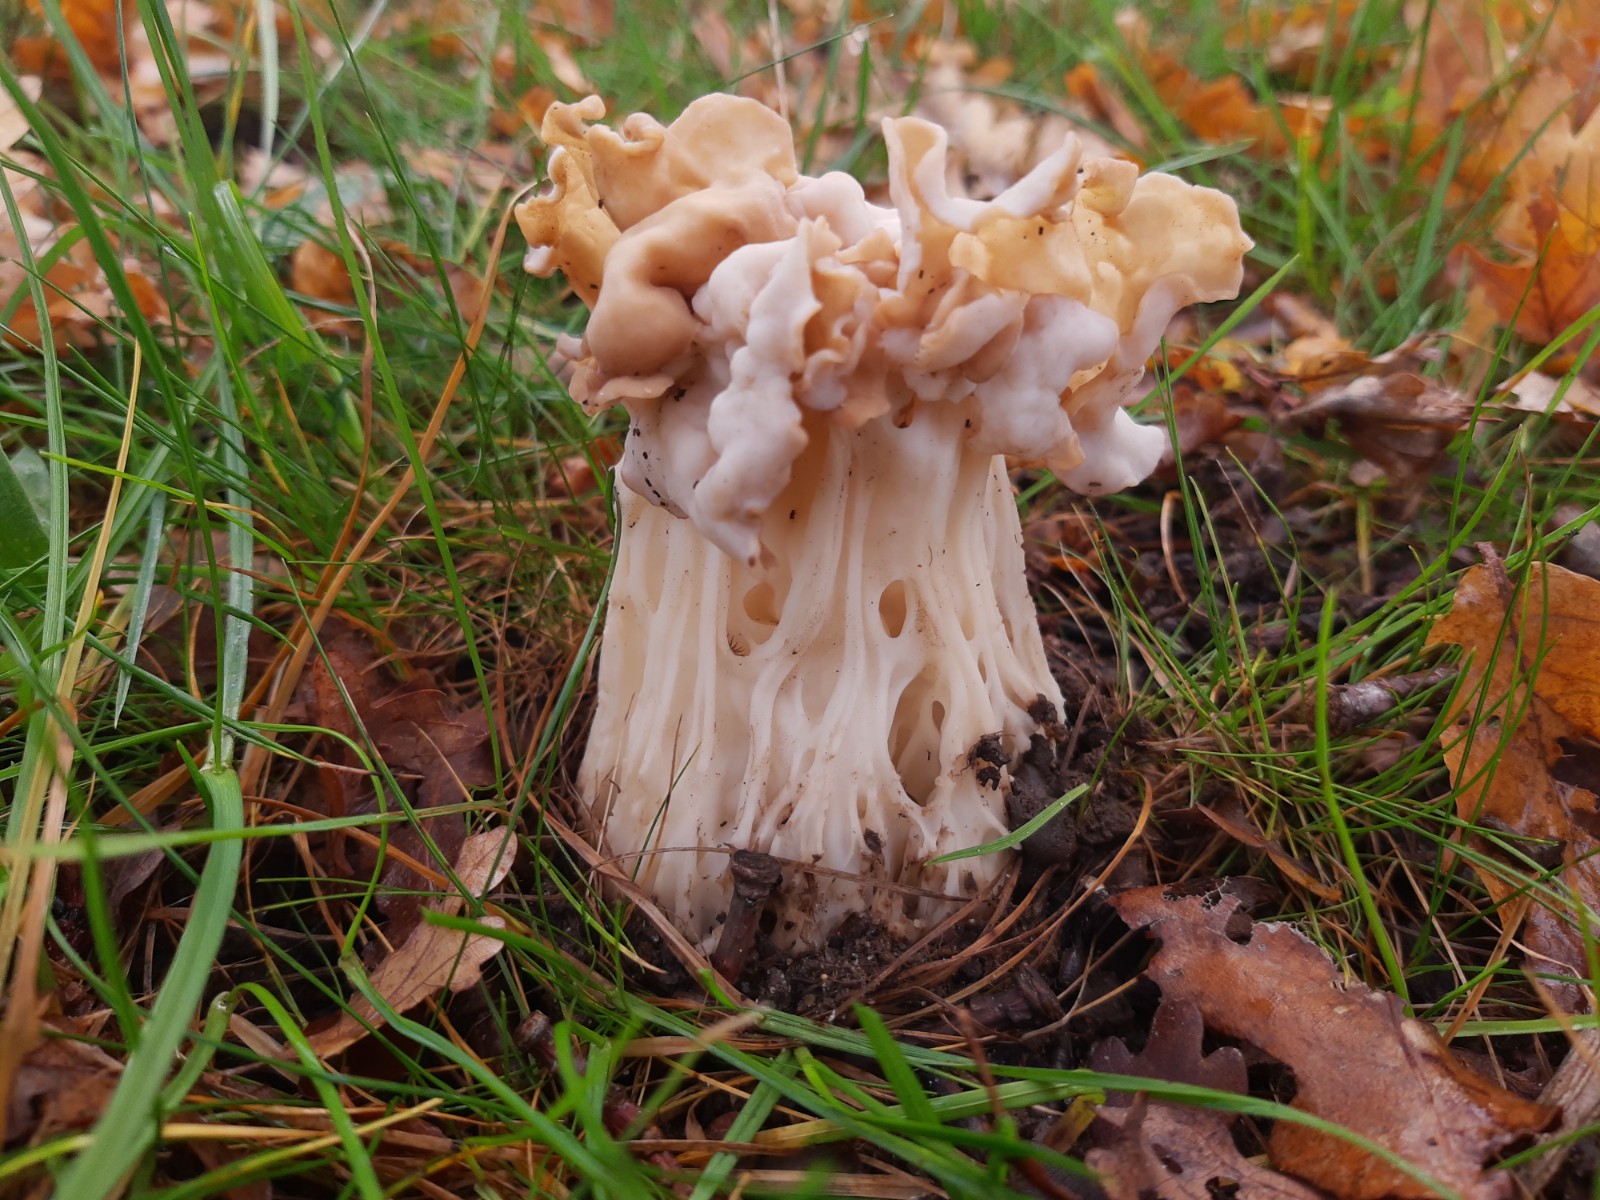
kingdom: Fungi
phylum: Ascomycota
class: Pezizomycetes
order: Pezizales
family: Helvellaceae
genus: Helvella
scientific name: Helvella crispa
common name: kruset foldhat
